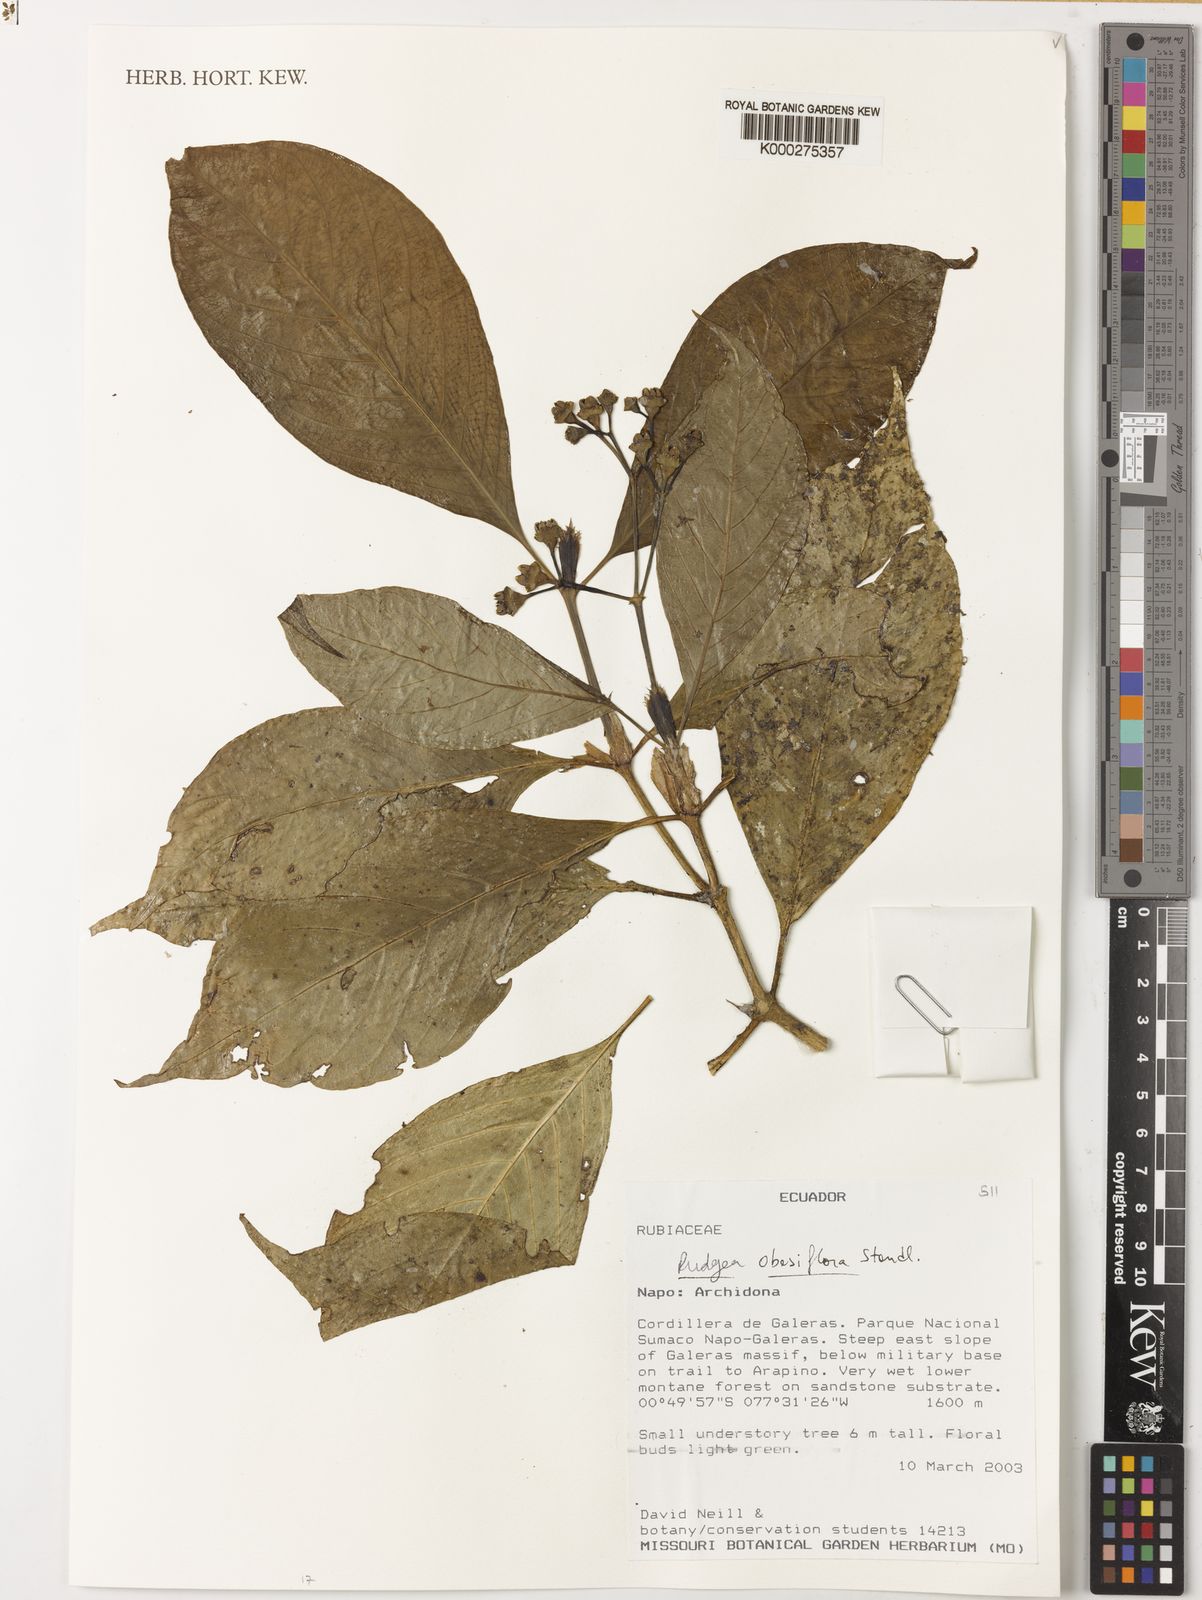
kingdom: Plantae
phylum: Tracheophyta
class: Magnoliopsida
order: Gentianales
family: Rubiaceae
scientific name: Rubiaceae
